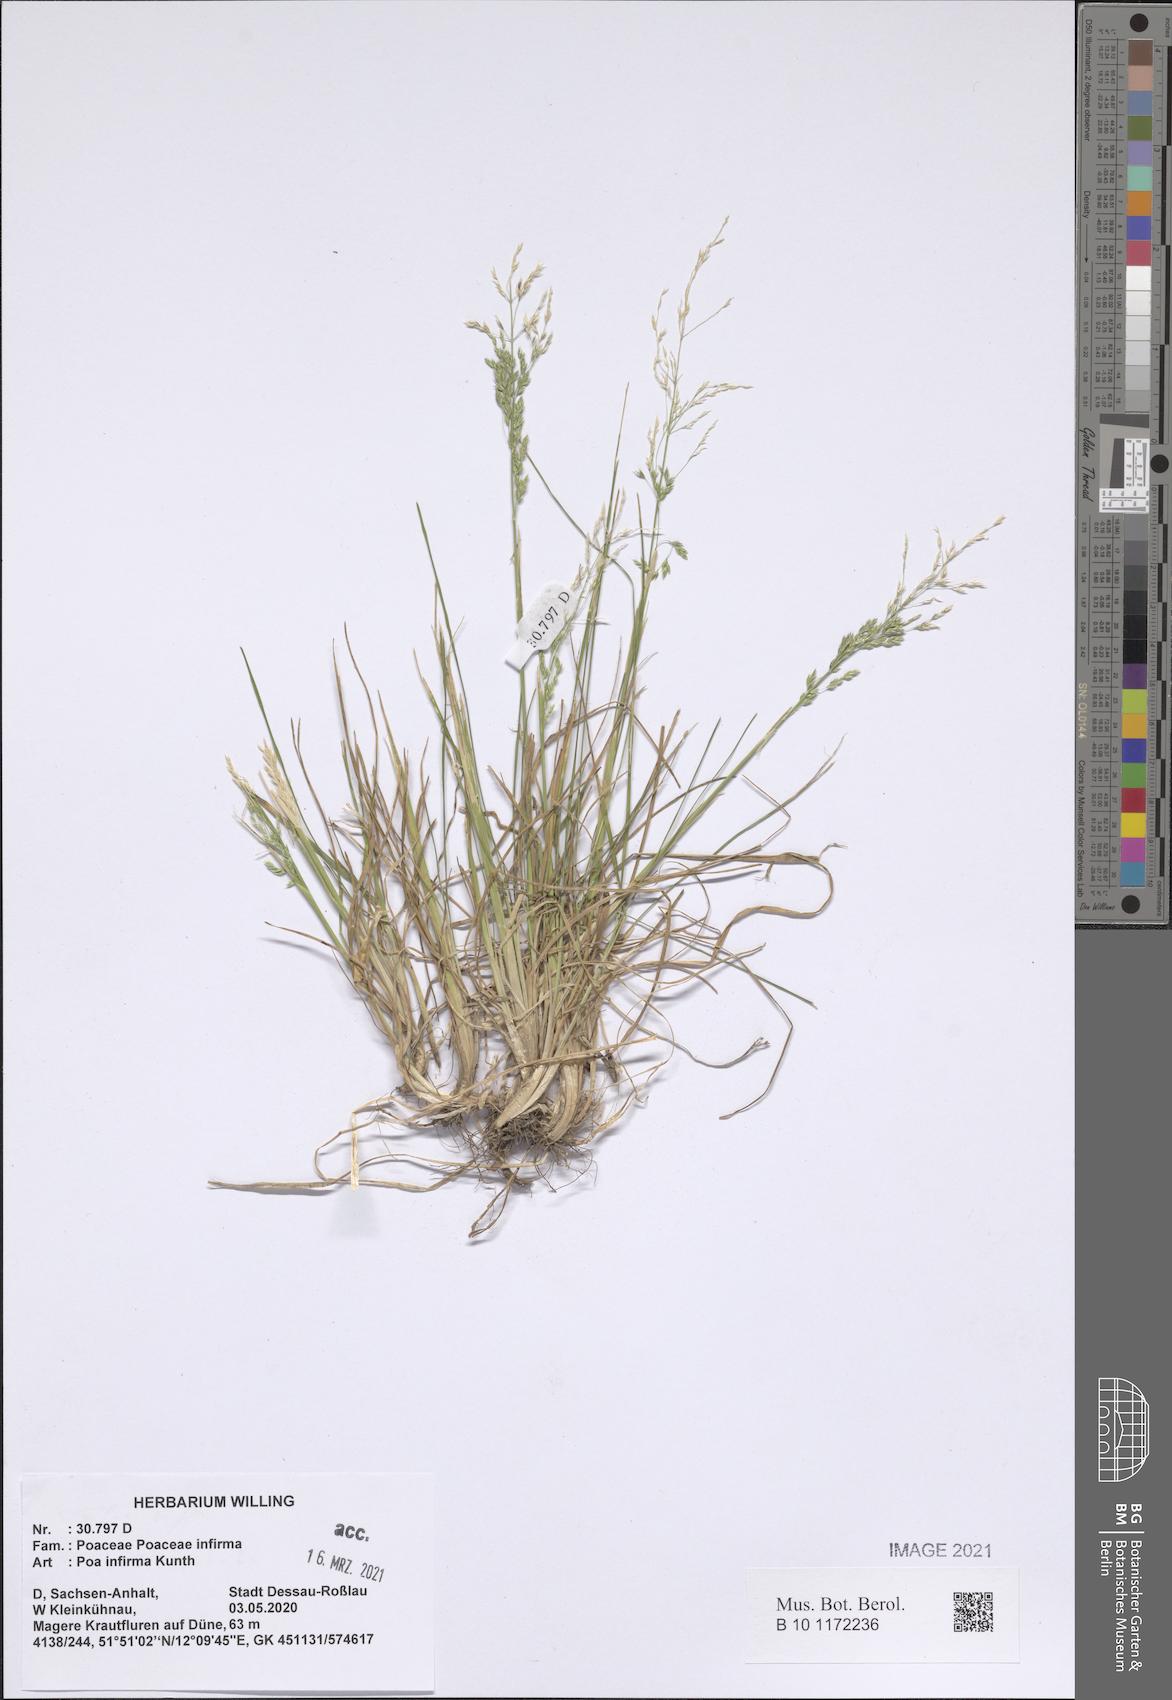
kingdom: Plantae
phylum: Tracheophyta
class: Liliopsida
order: Poales
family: Poaceae
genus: Poa
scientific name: Poa infirma
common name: Weak bluegrass
